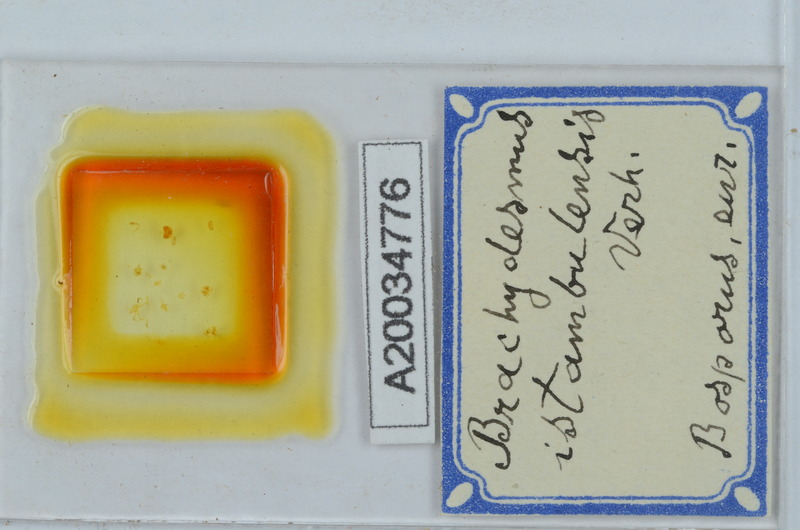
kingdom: Animalia
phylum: Arthropoda
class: Diplopoda
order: Polydesmida
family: Polydesmidae
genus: Brachydesmus
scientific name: Brachydesmus istanbulensis
